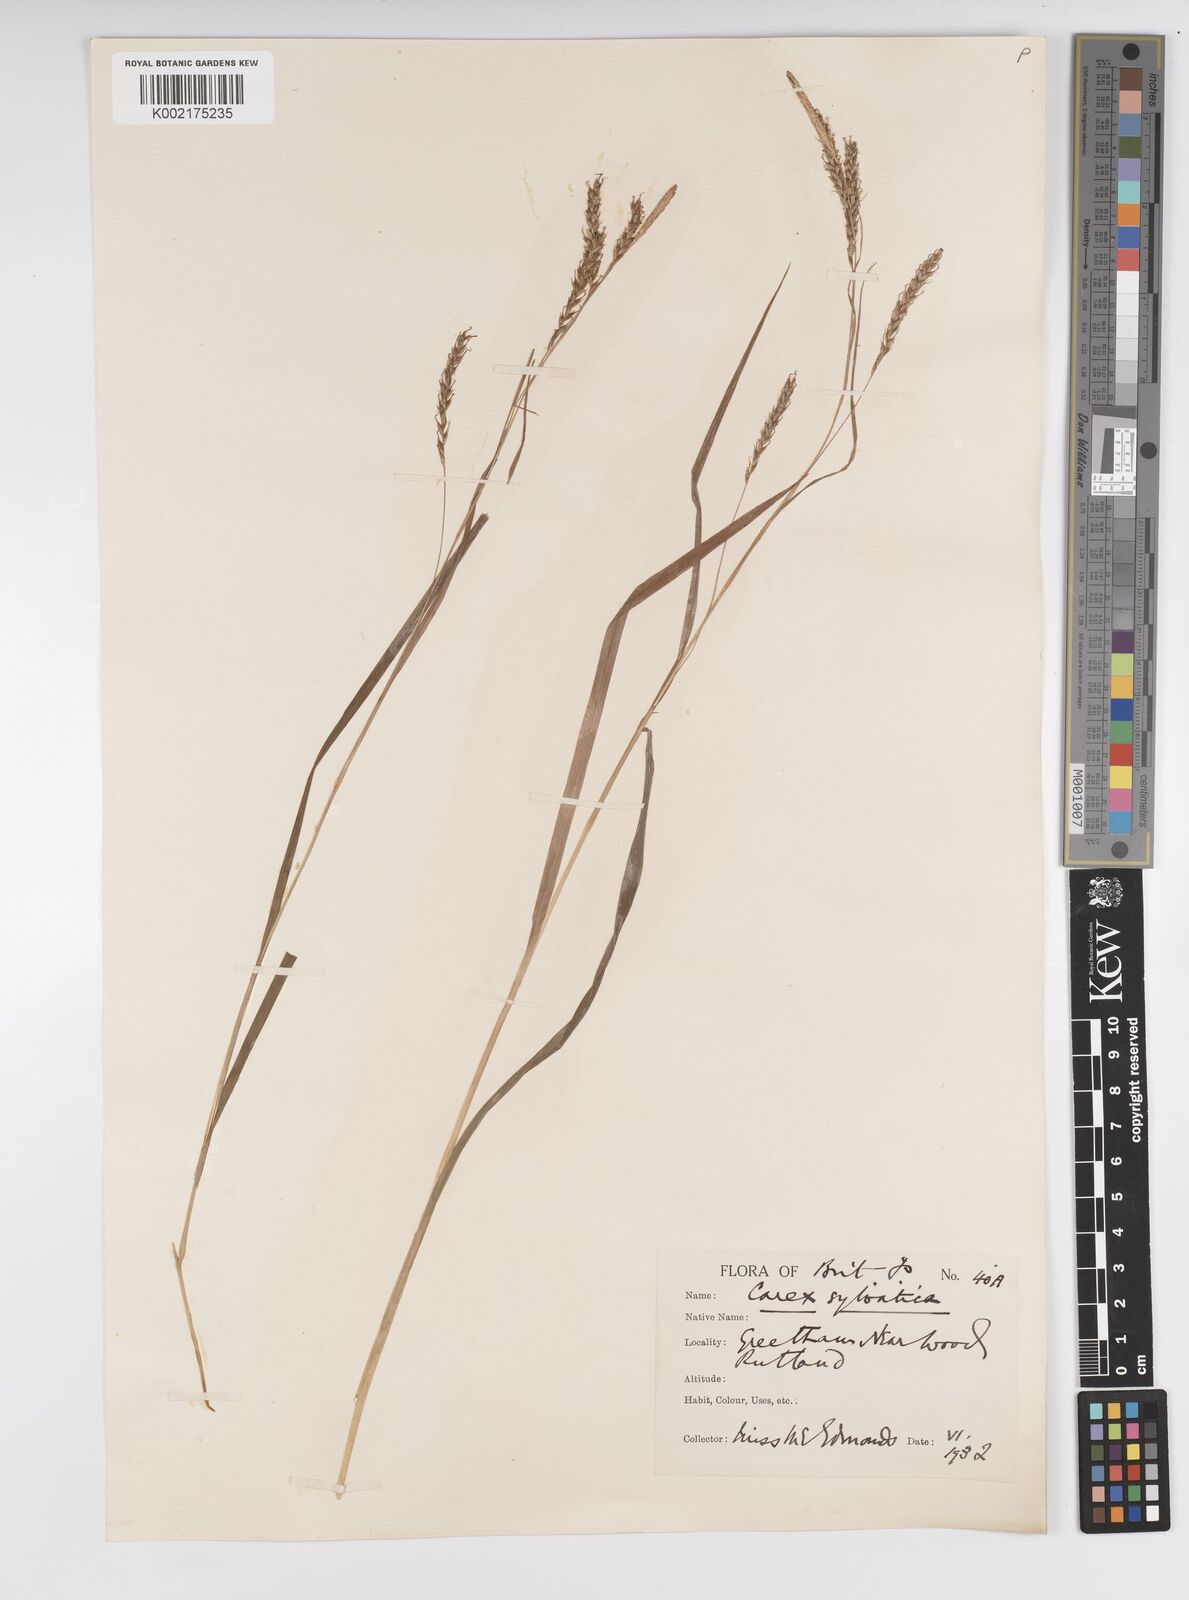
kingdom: Plantae
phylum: Tracheophyta
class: Liliopsida
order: Poales
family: Cyperaceae
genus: Carex
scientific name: Carex sylvatica
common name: Wood-sedge
